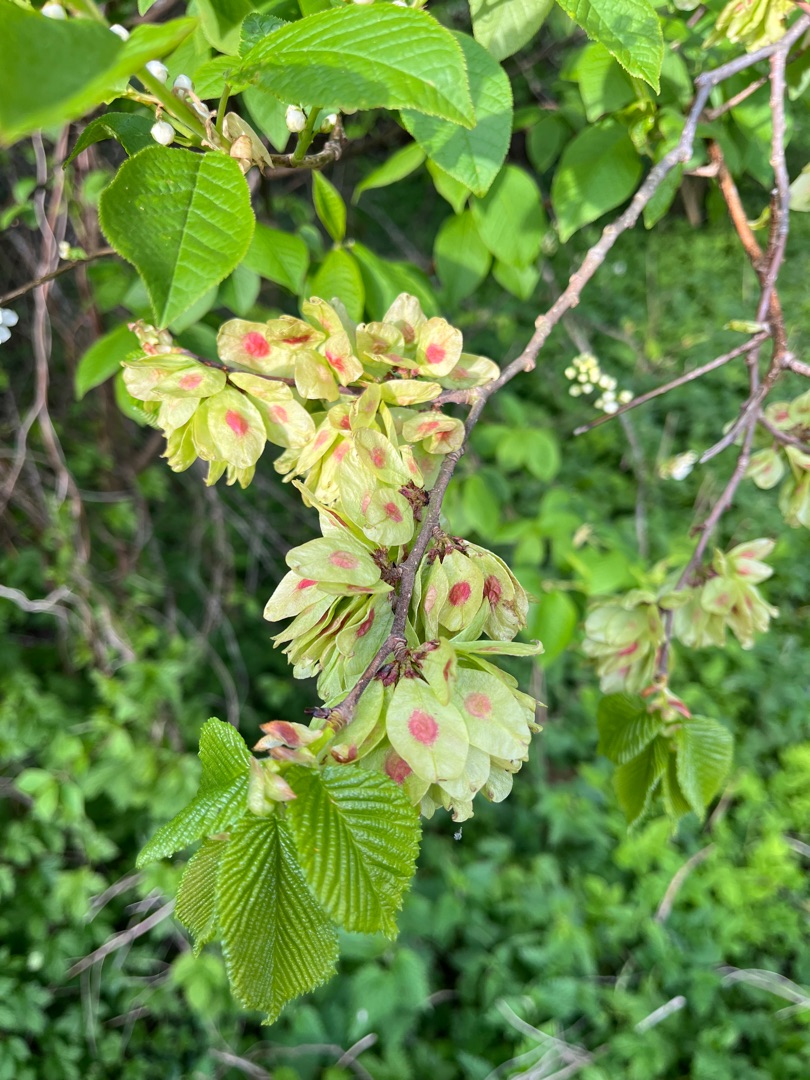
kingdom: Plantae
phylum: Tracheophyta
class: Magnoliopsida
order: Rosales
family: Ulmaceae
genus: Ulmus
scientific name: Ulmus glabra
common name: Skov-elm/storbladet elm
